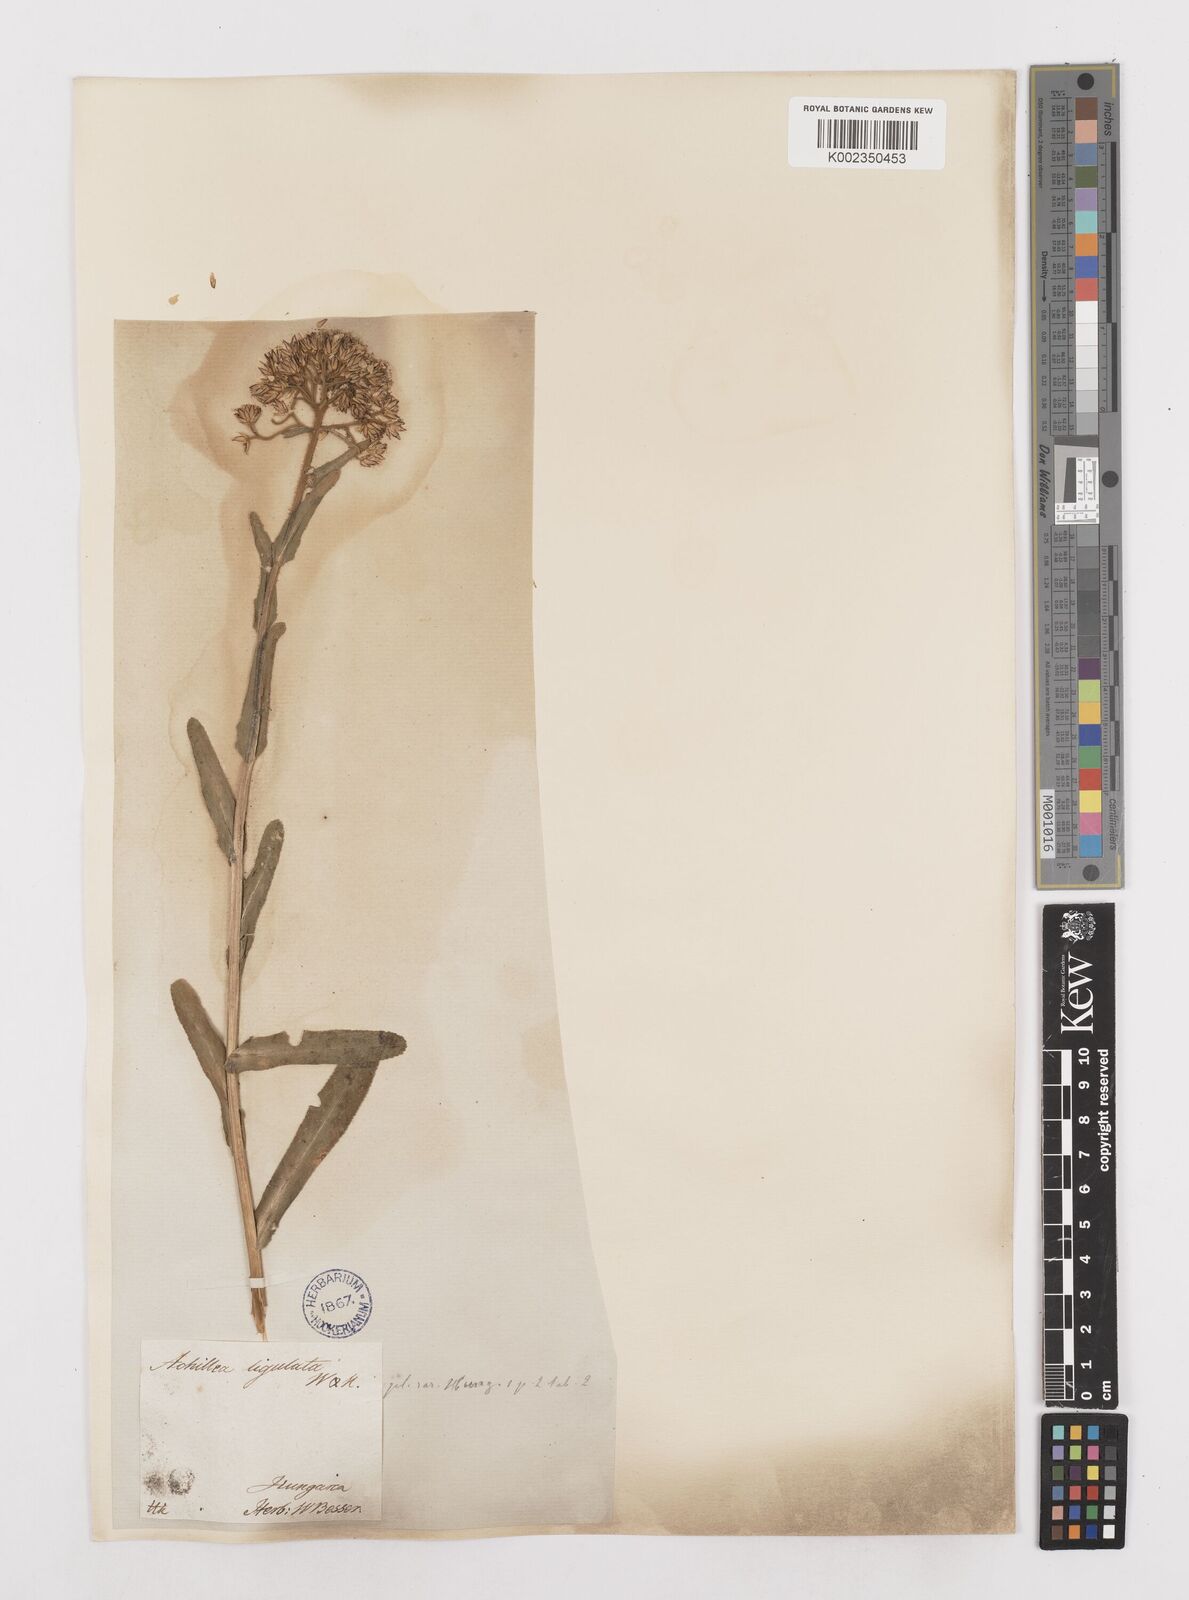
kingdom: Plantae
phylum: Tracheophyta
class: Magnoliopsida
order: Asterales
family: Asteraceae
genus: Achillea
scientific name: Achillea lingulata
